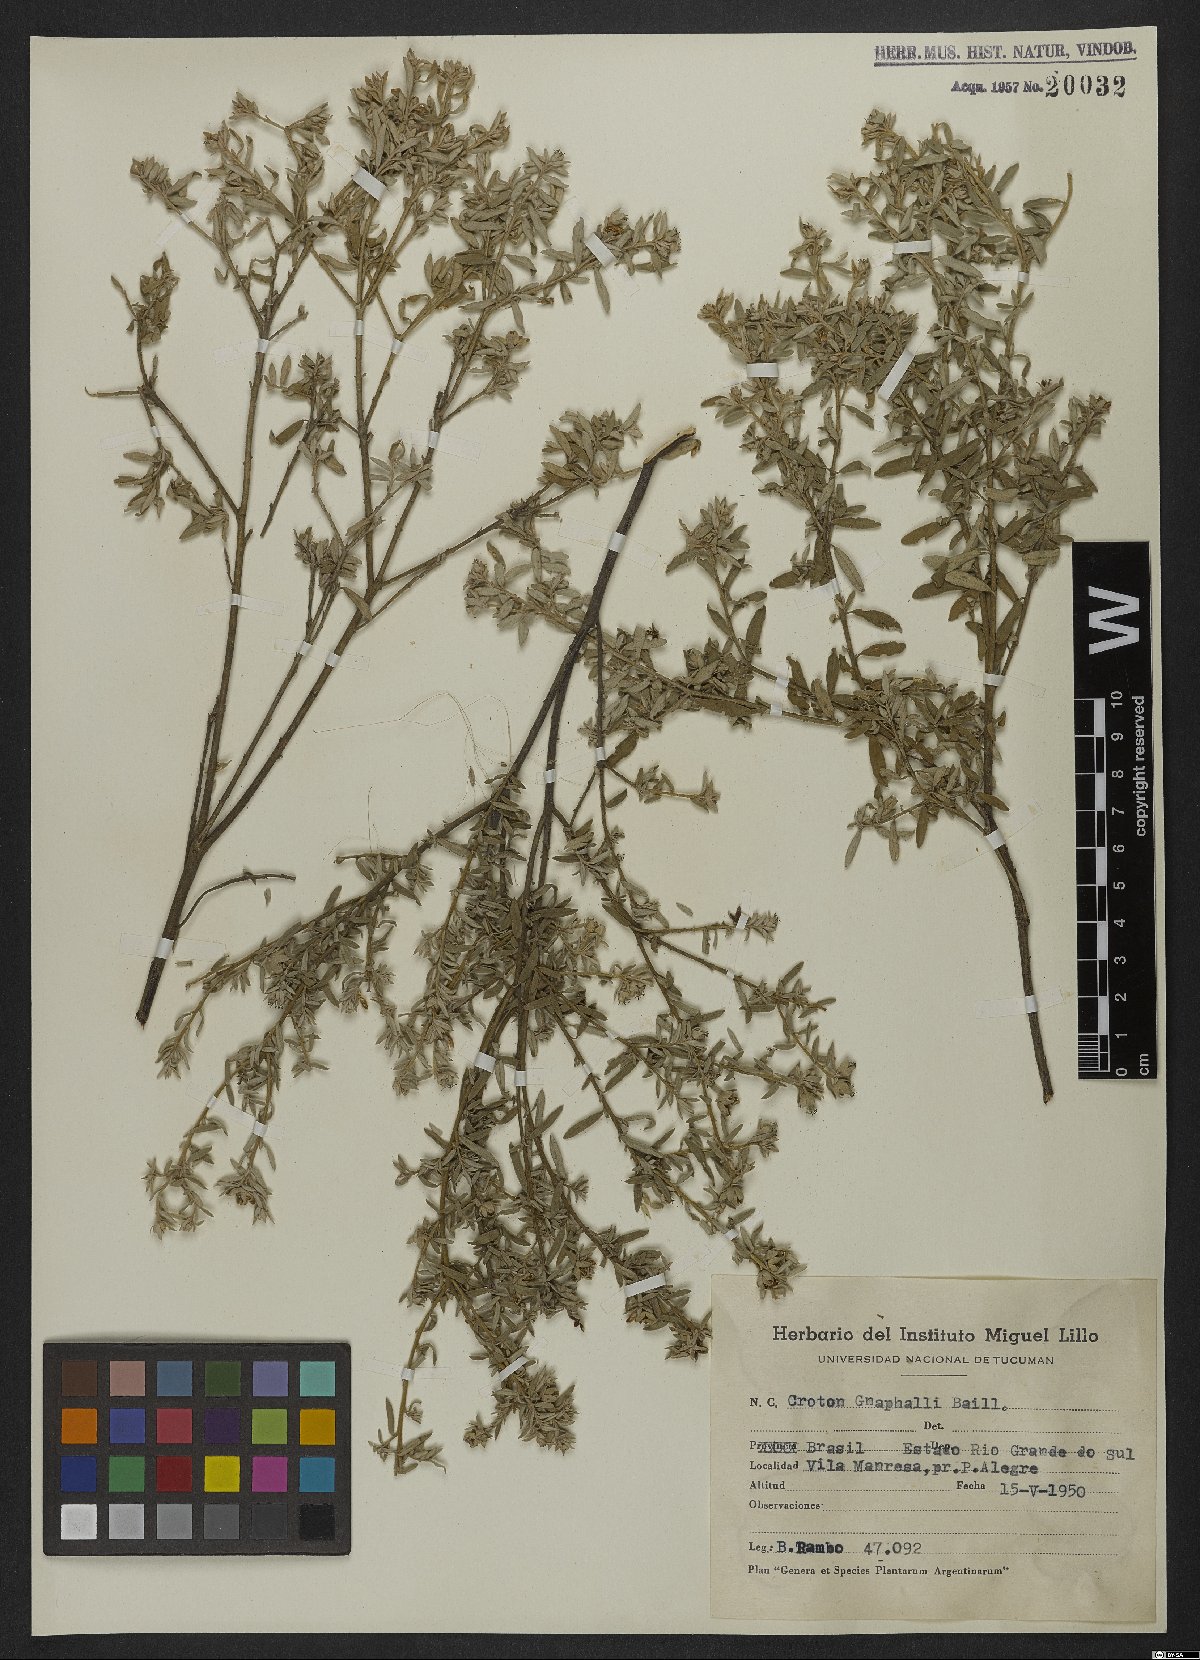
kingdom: Plantae
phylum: Tracheophyta
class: Magnoliopsida
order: Malpighiales
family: Euphorbiaceae
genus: Croton
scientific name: Croton gnaphalii
